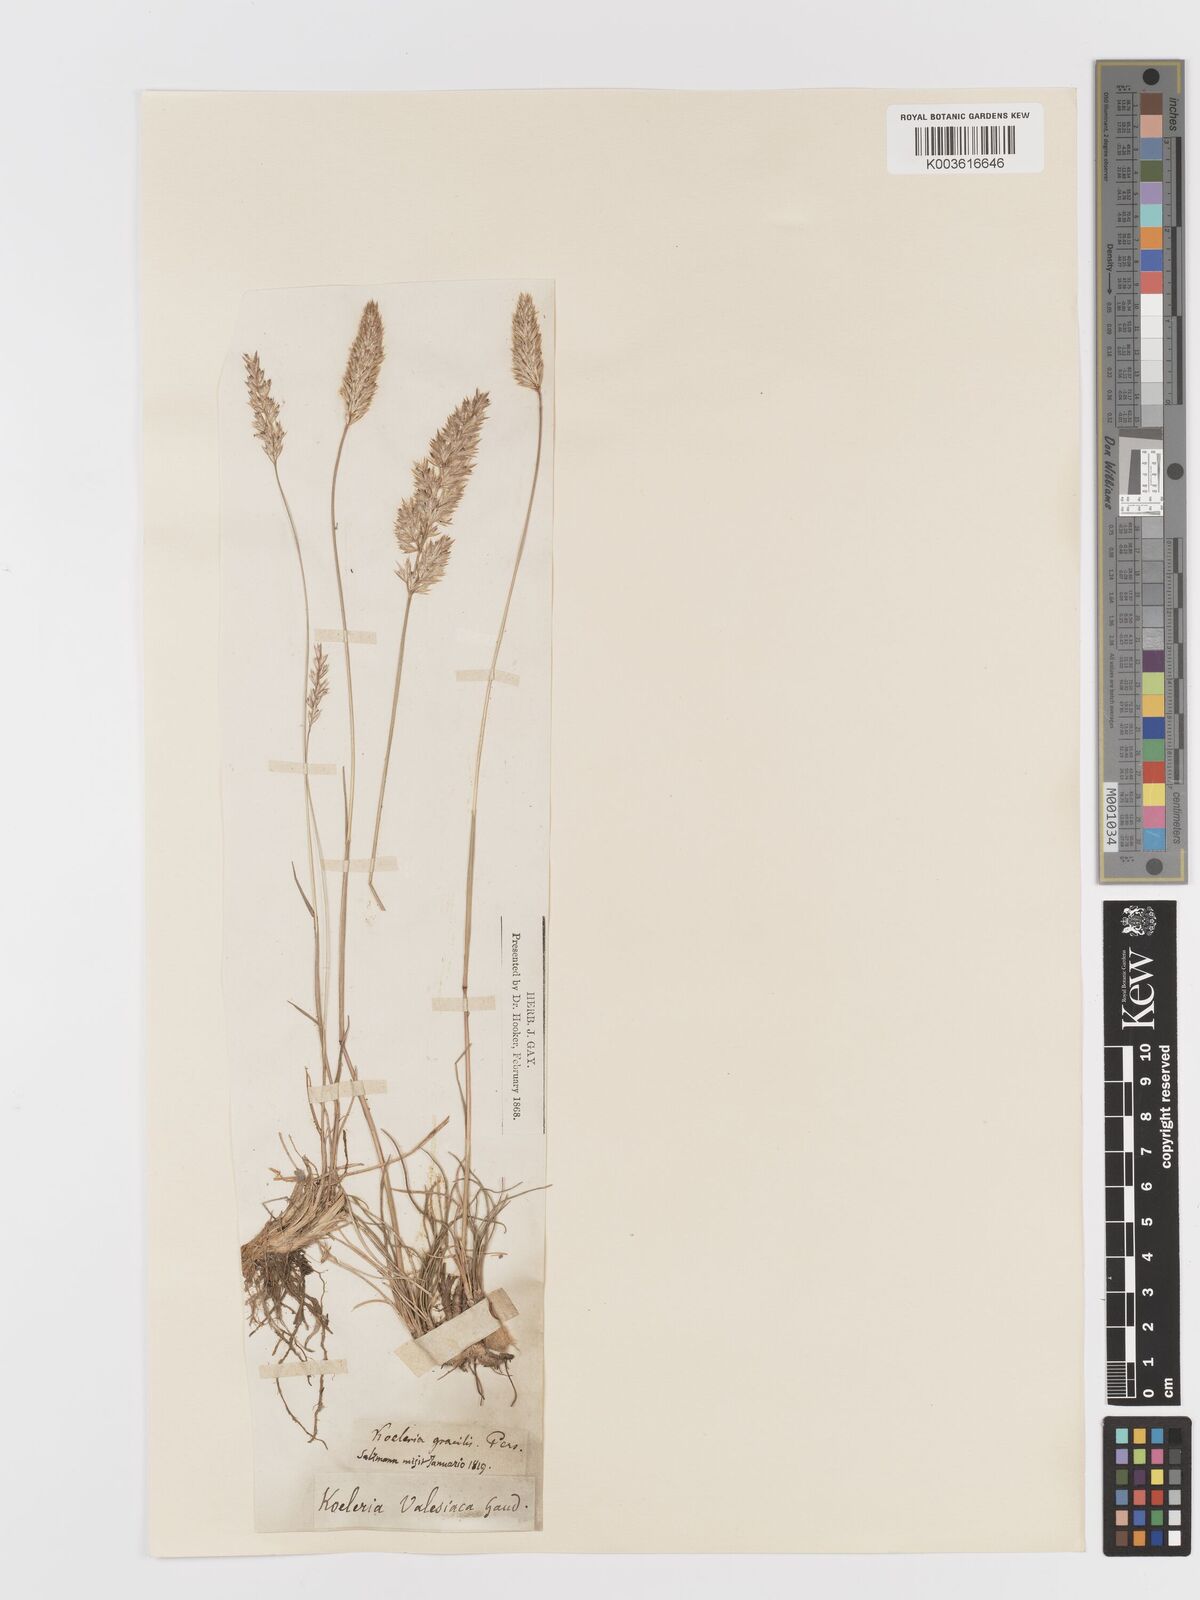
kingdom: Plantae
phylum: Tracheophyta
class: Liliopsida
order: Poales
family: Poaceae
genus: Koeleria
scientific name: Koeleria vallesiana
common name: Somerset hair-grass
